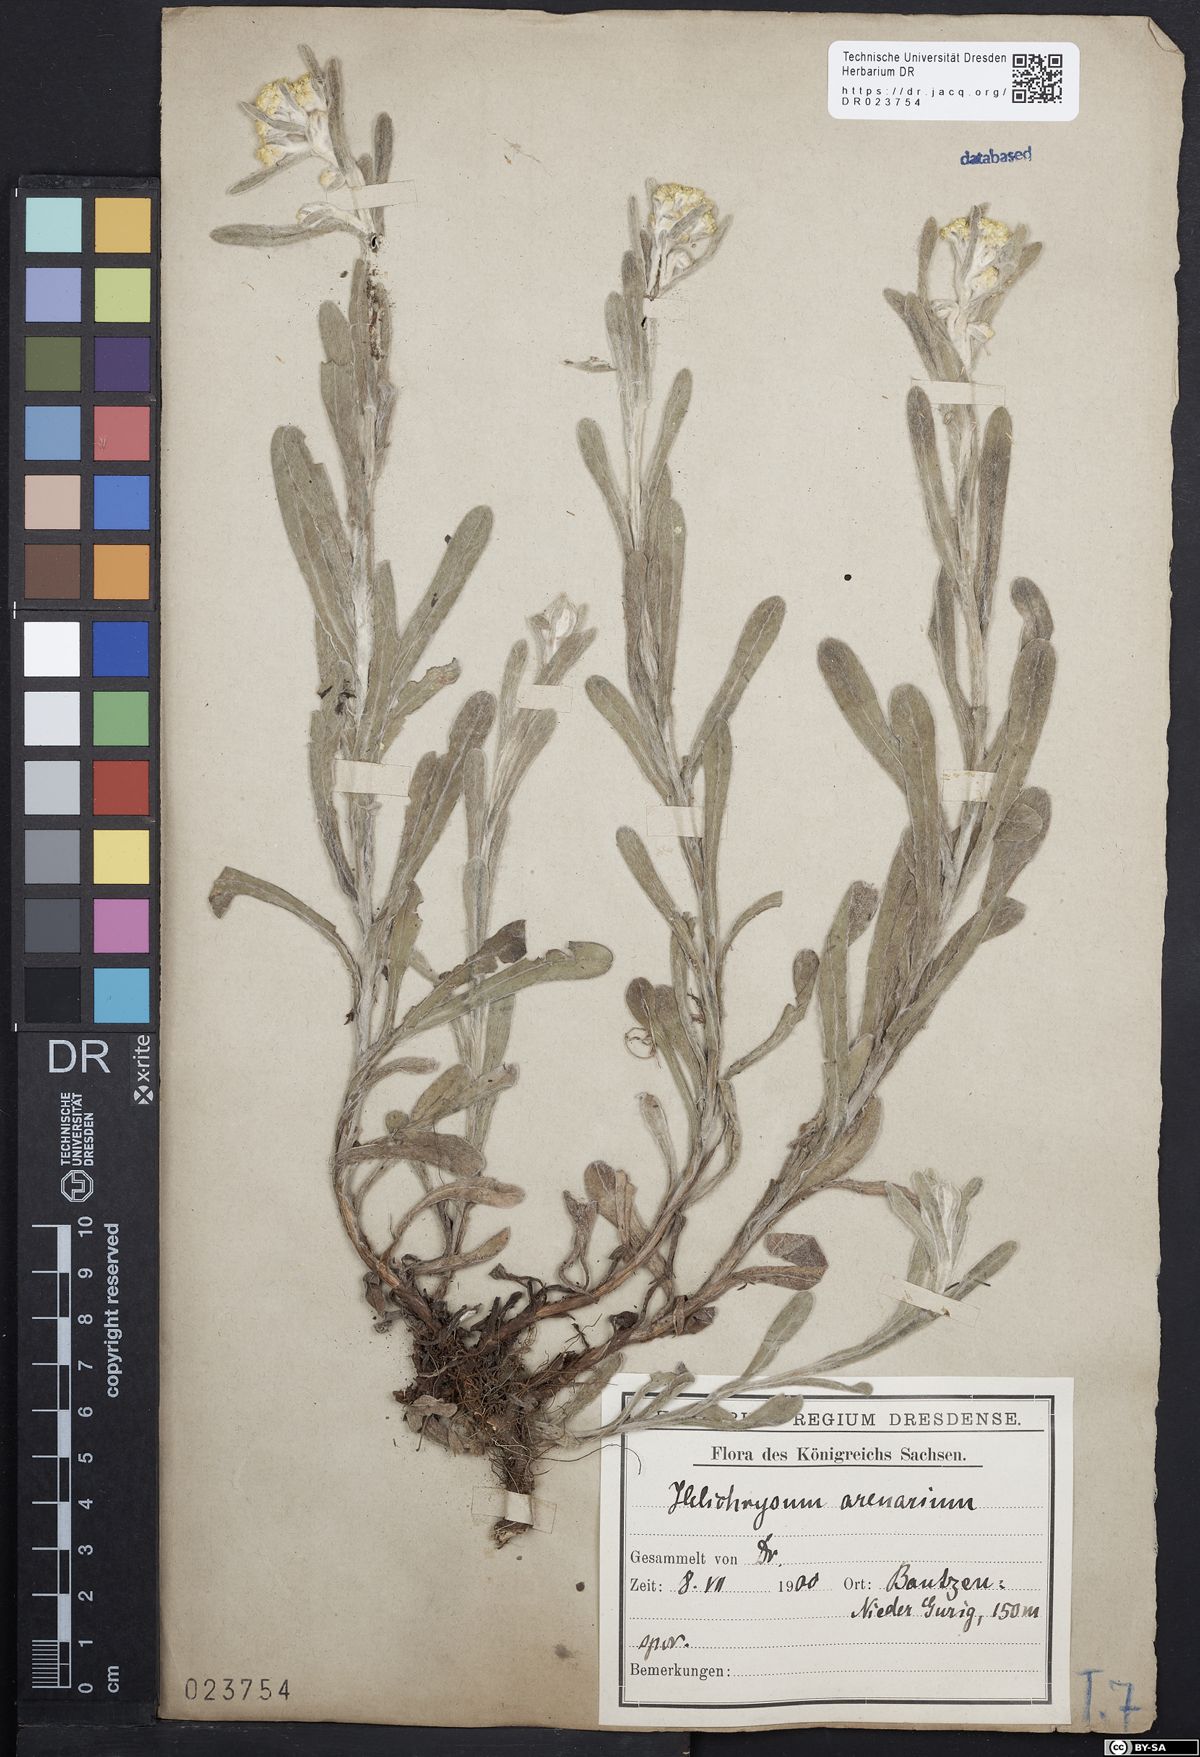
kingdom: Plantae
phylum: Tracheophyta
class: Magnoliopsida
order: Asterales
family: Asteraceae
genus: Helichrysum
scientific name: Helichrysum arenarium
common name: Strawflower
